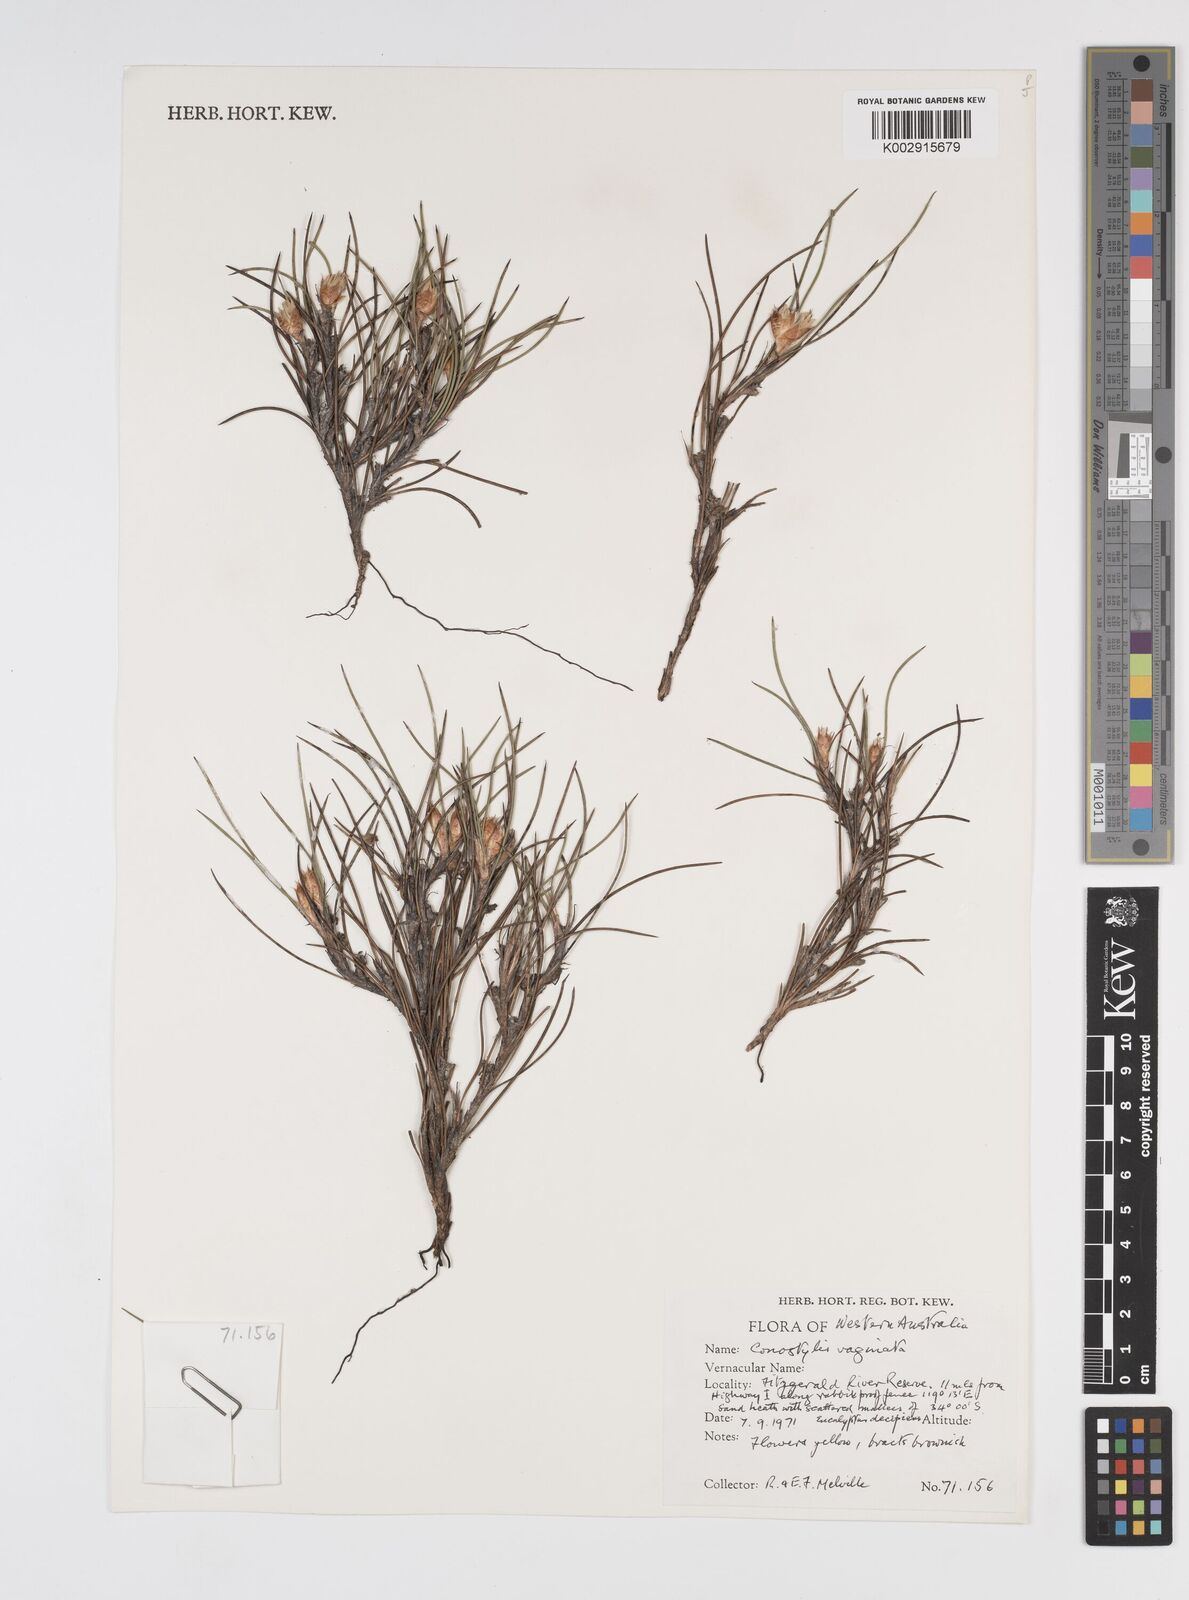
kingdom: Plantae
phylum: Tracheophyta
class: Liliopsida
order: Commelinales
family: Haemodoraceae
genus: Conostylis
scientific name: Conostylis vaginata
